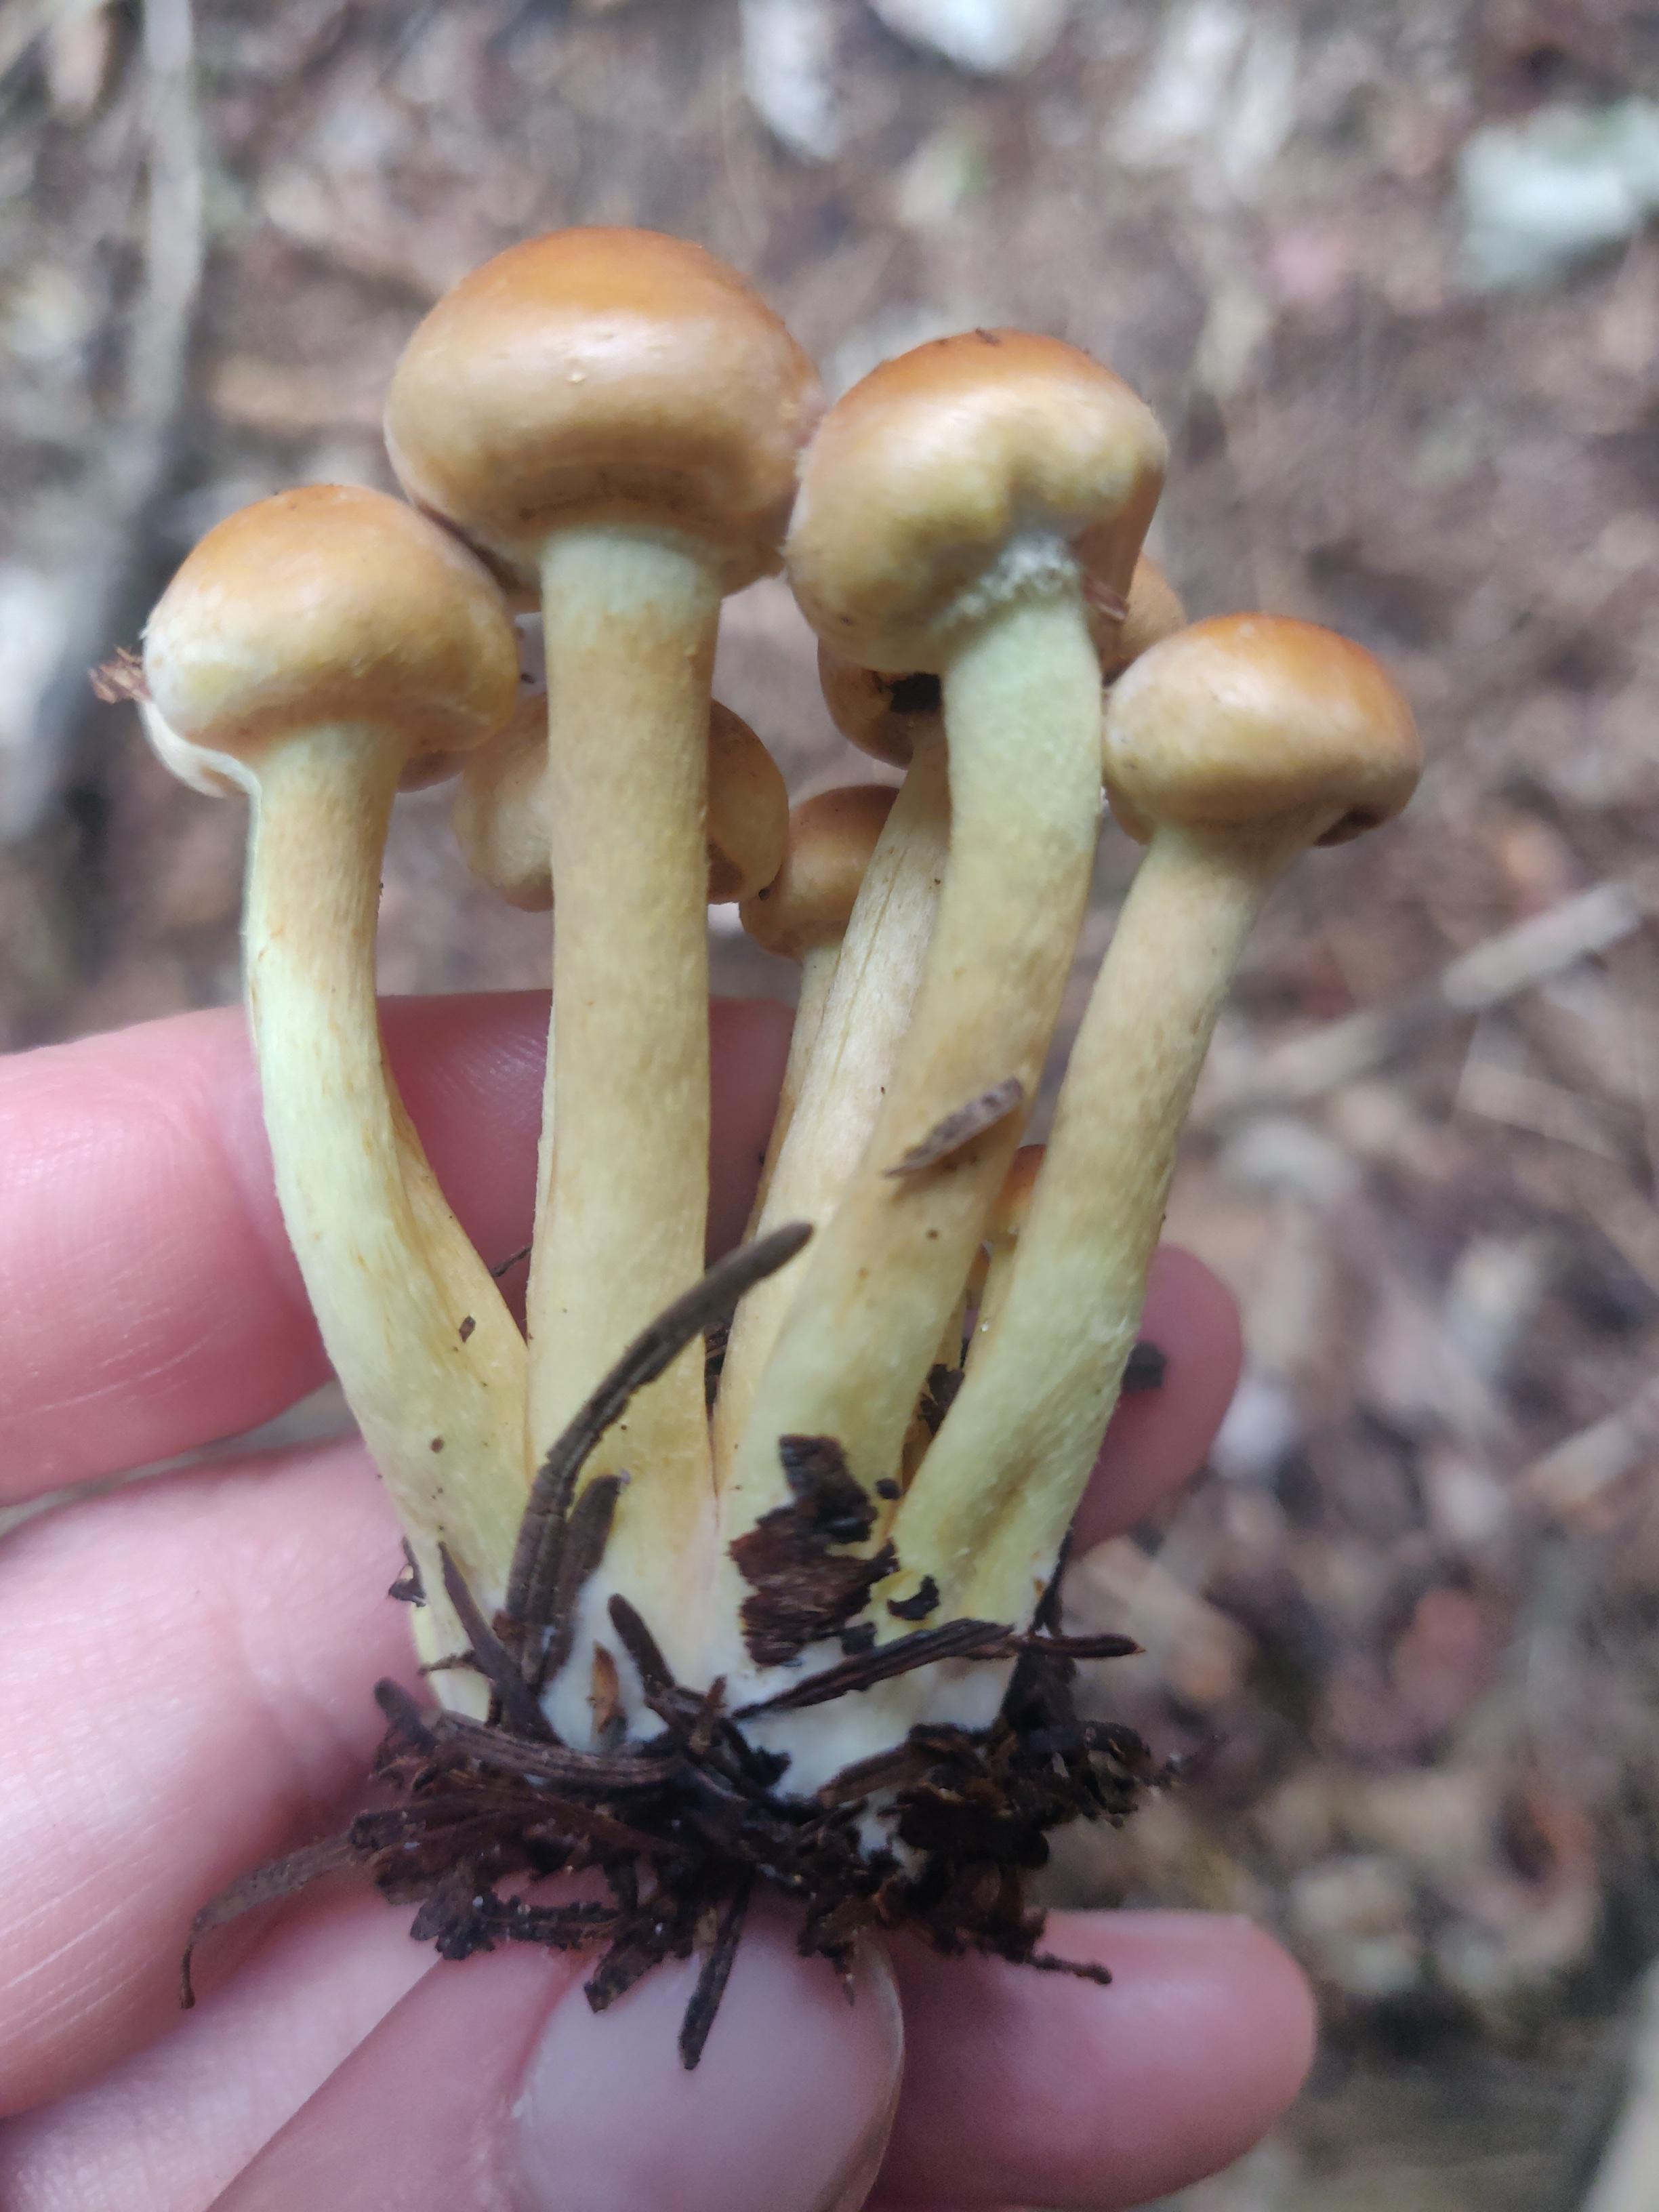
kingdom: Fungi
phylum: Basidiomycota
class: Agaricomycetes
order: Agaricales
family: Strophariaceae
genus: Hypholoma
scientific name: Hypholoma
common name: svovlhat
